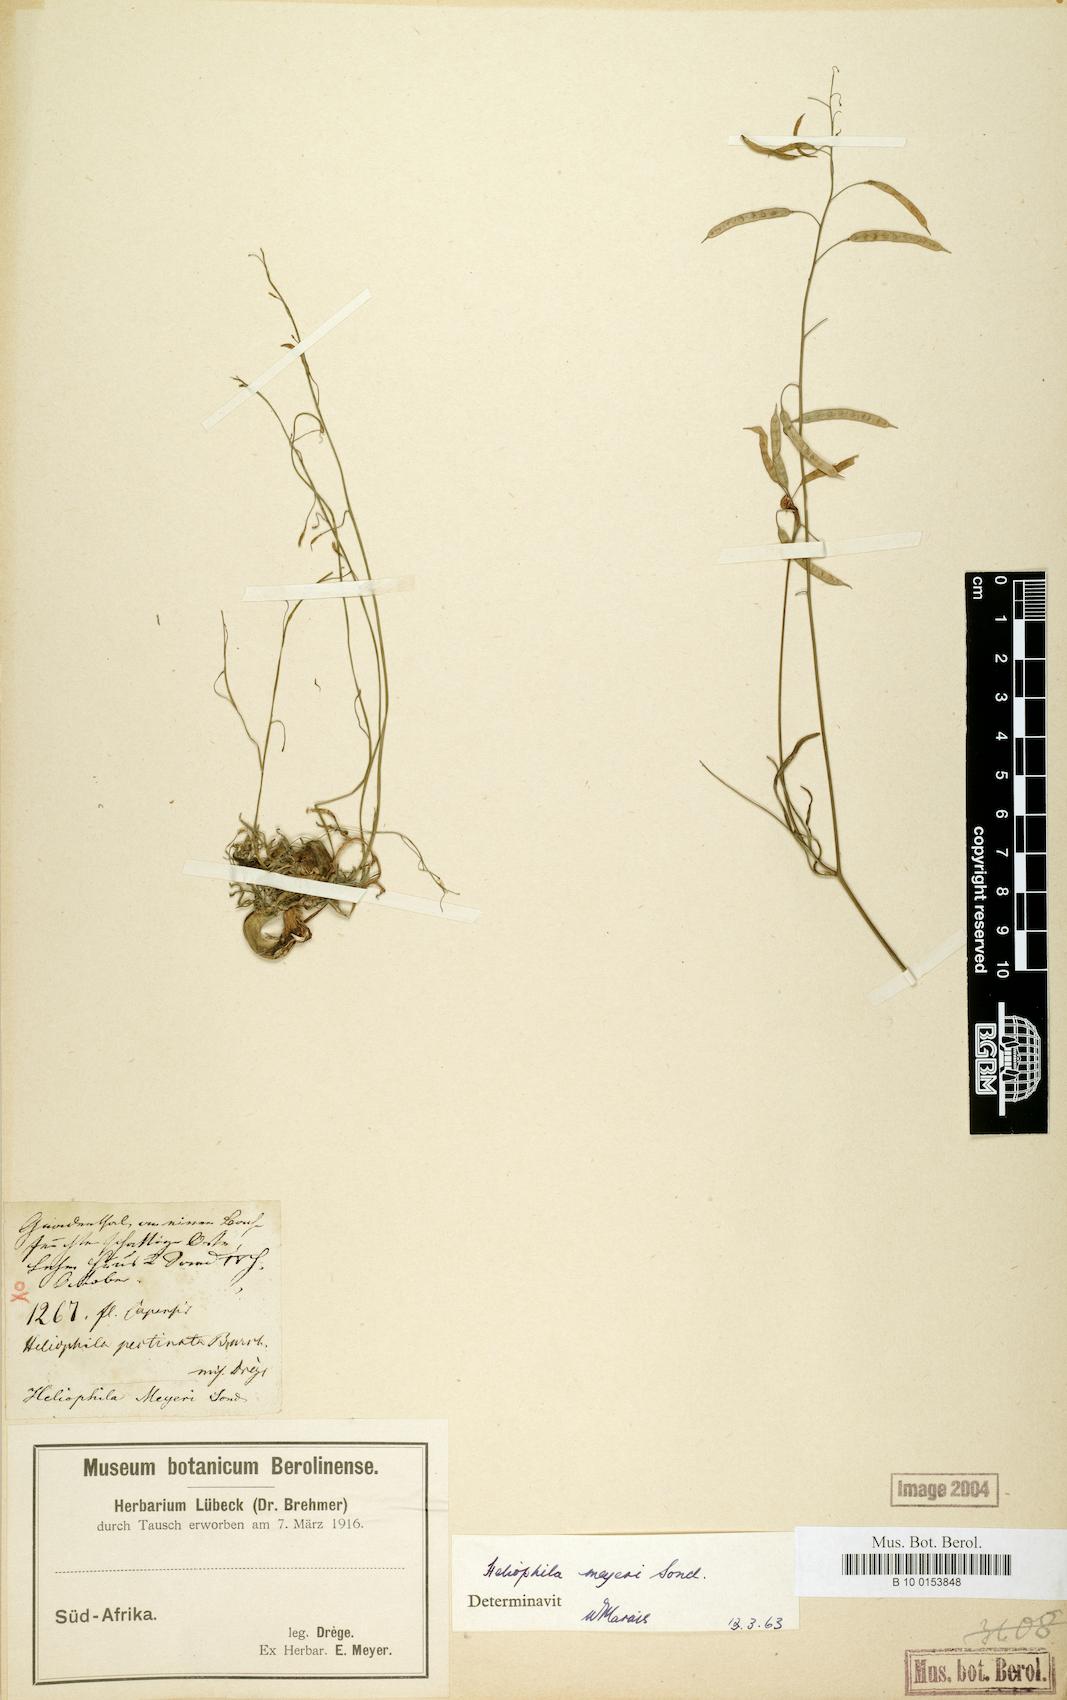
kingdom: Plantae
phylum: Tracheophyta
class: Magnoliopsida
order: Brassicales
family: Brassicaceae
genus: Heliophila
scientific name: Heliophila meyeri
